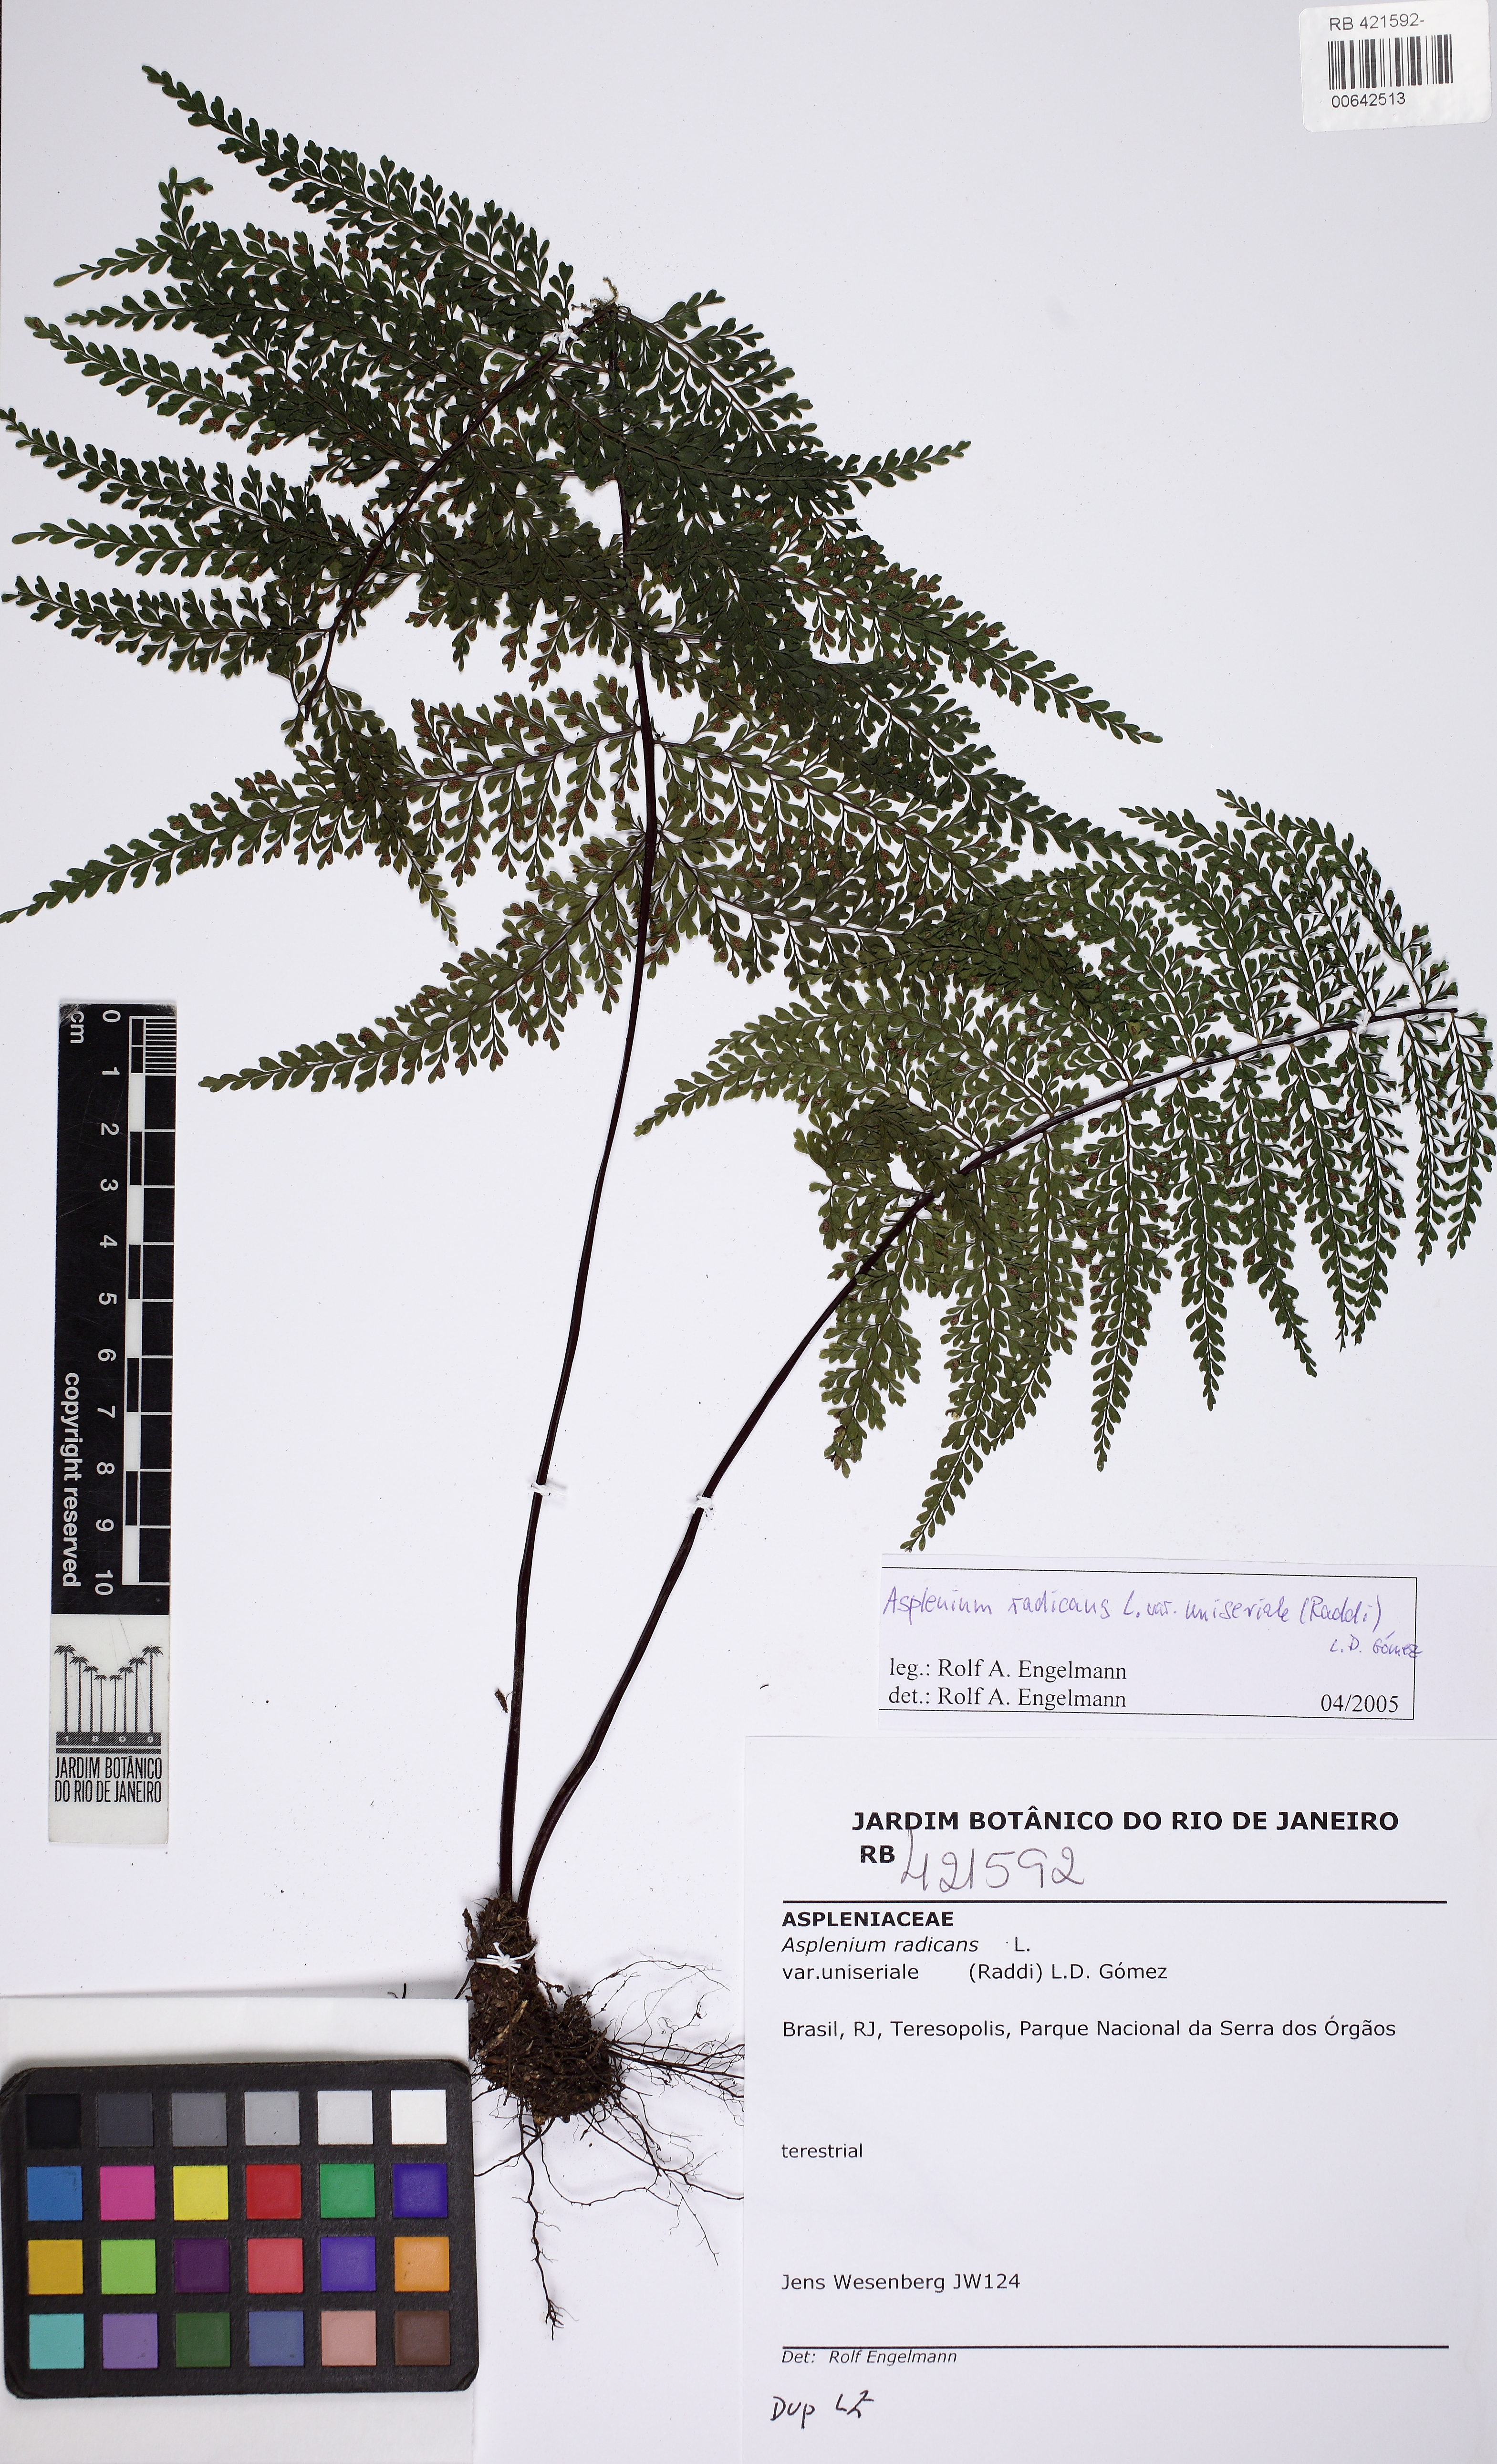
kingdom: Plantae
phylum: Tracheophyta
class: Polypodiopsida
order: Polypodiales
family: Aspleniaceae
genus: Asplenium
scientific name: Asplenium uniseriale
